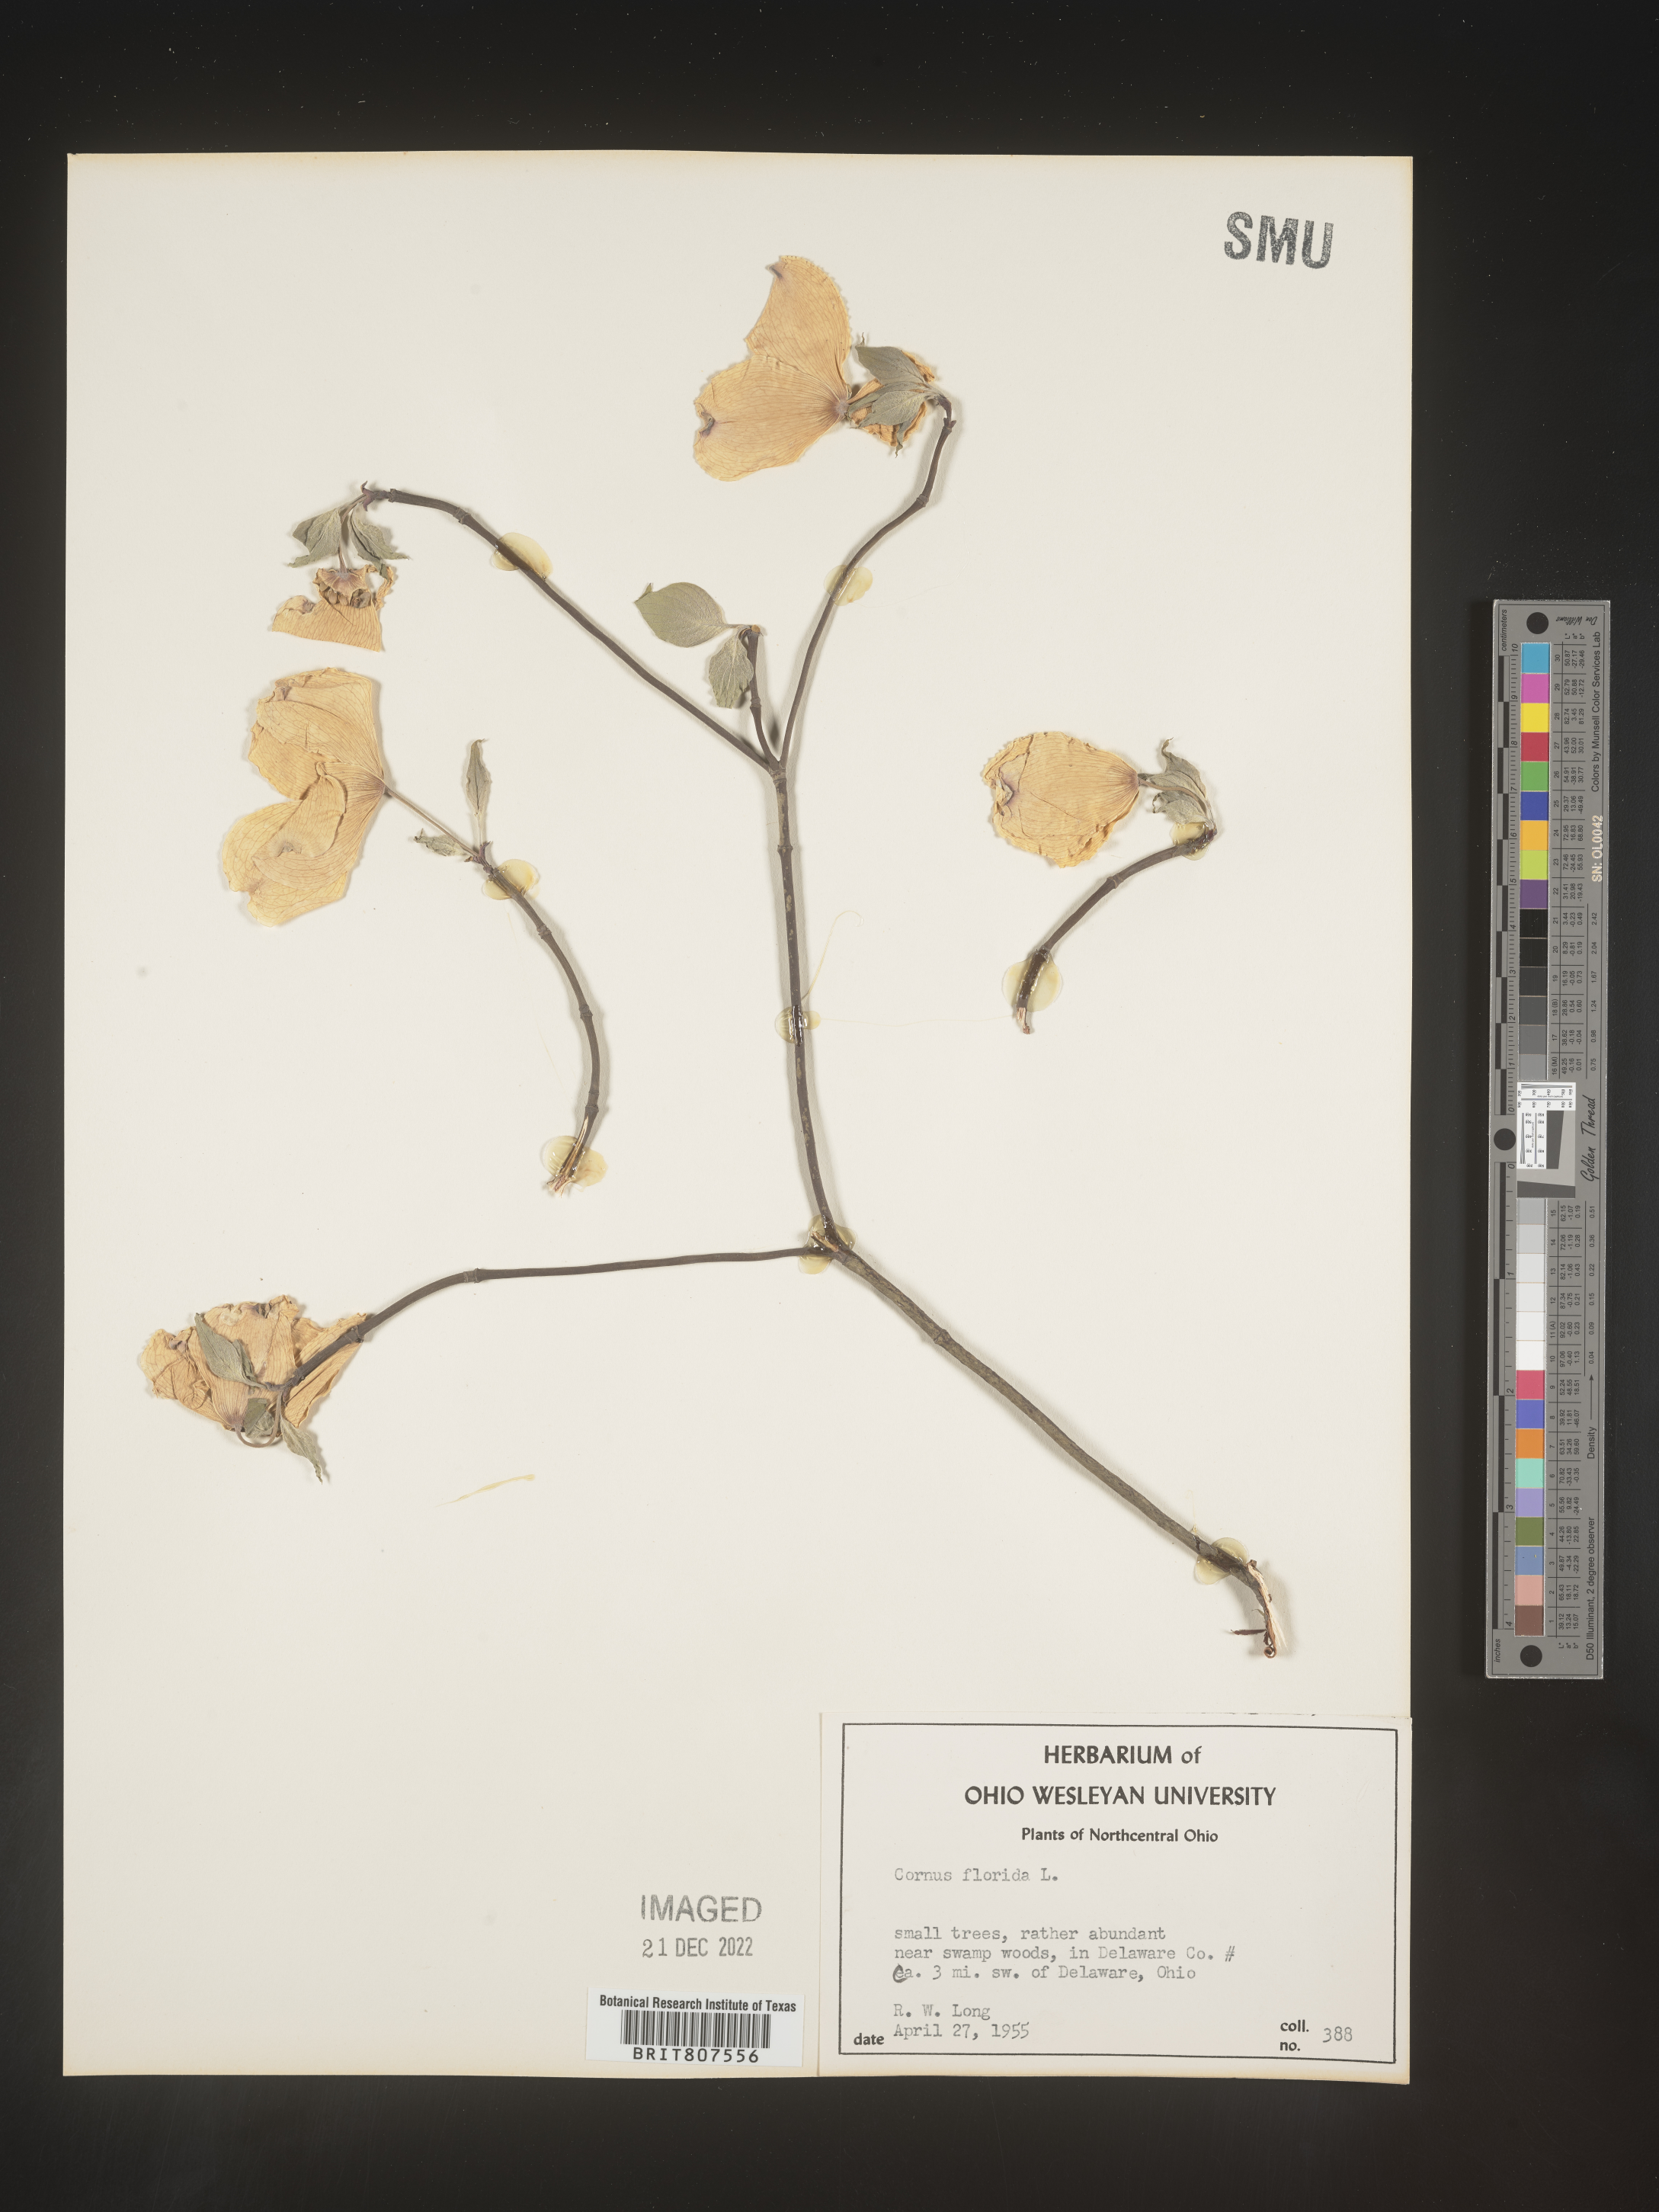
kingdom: Plantae
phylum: Tracheophyta
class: Magnoliopsida
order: Cornales
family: Cornaceae
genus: Cornus
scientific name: Cornus florida
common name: Flowering dogwood
